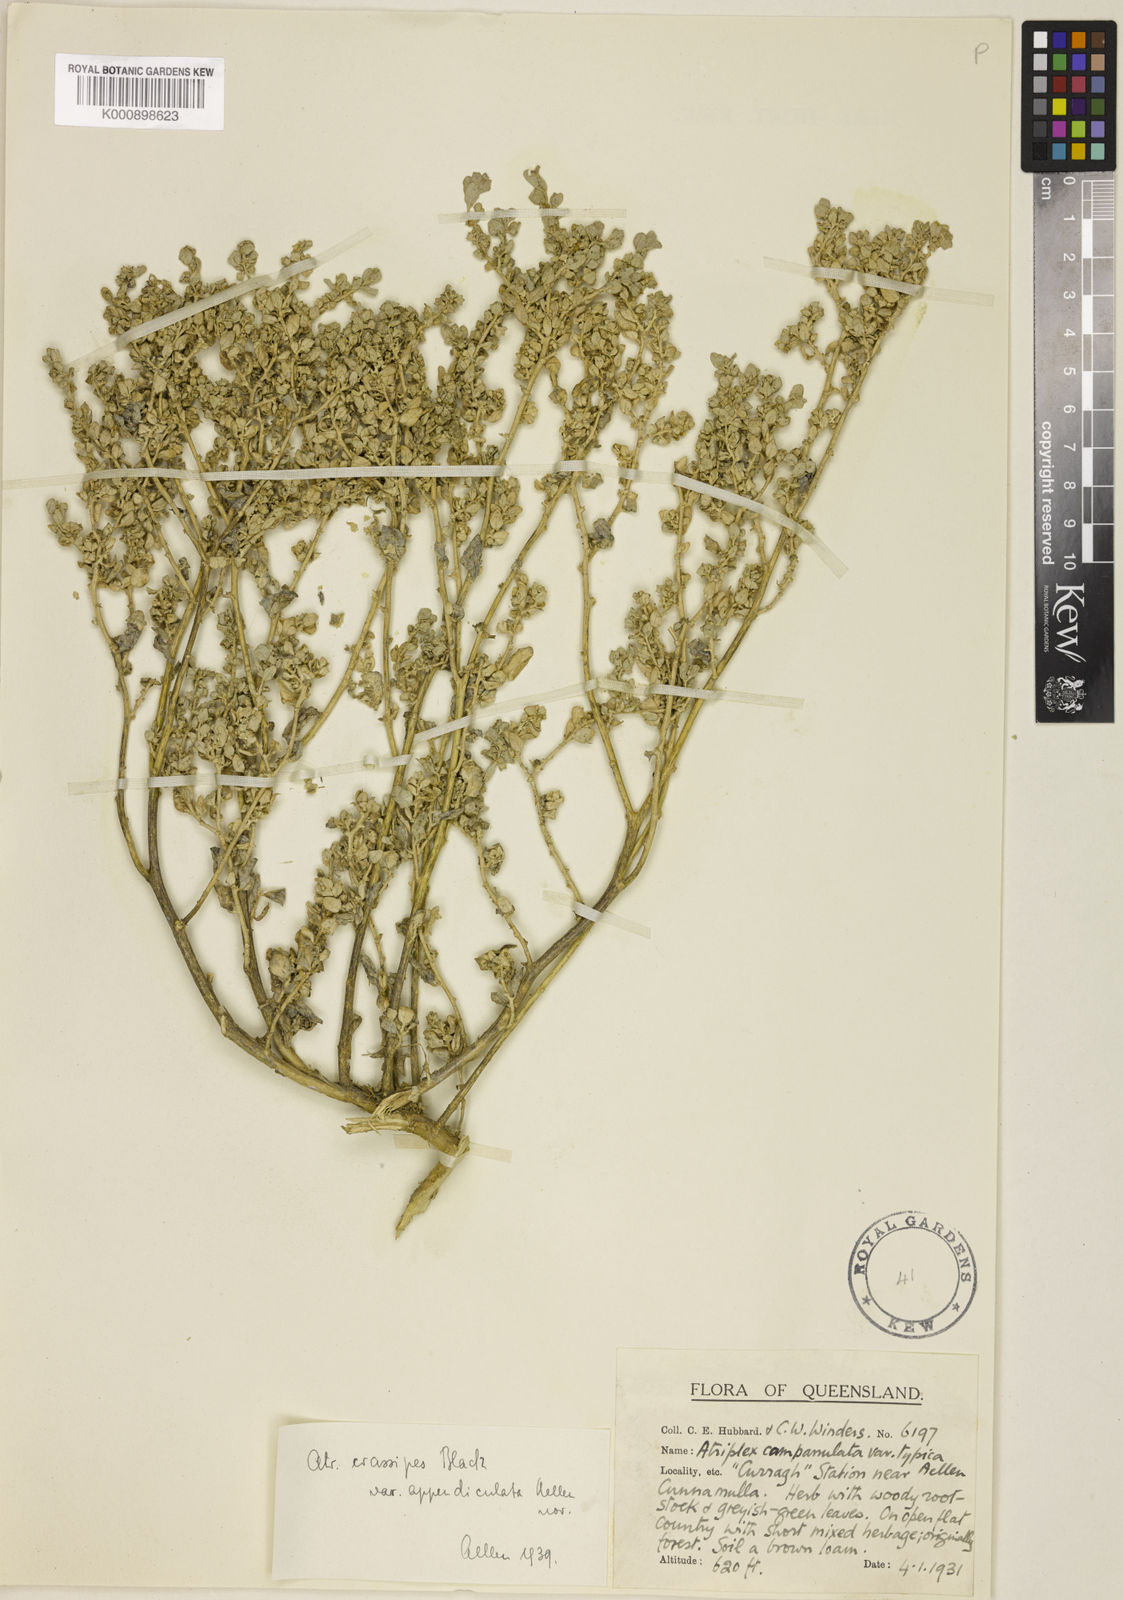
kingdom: Plantae
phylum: Tracheophyta
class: Magnoliopsida
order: Caryophyllales
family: Amaranthaceae
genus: Atriplex
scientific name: Atriplex crassipes
